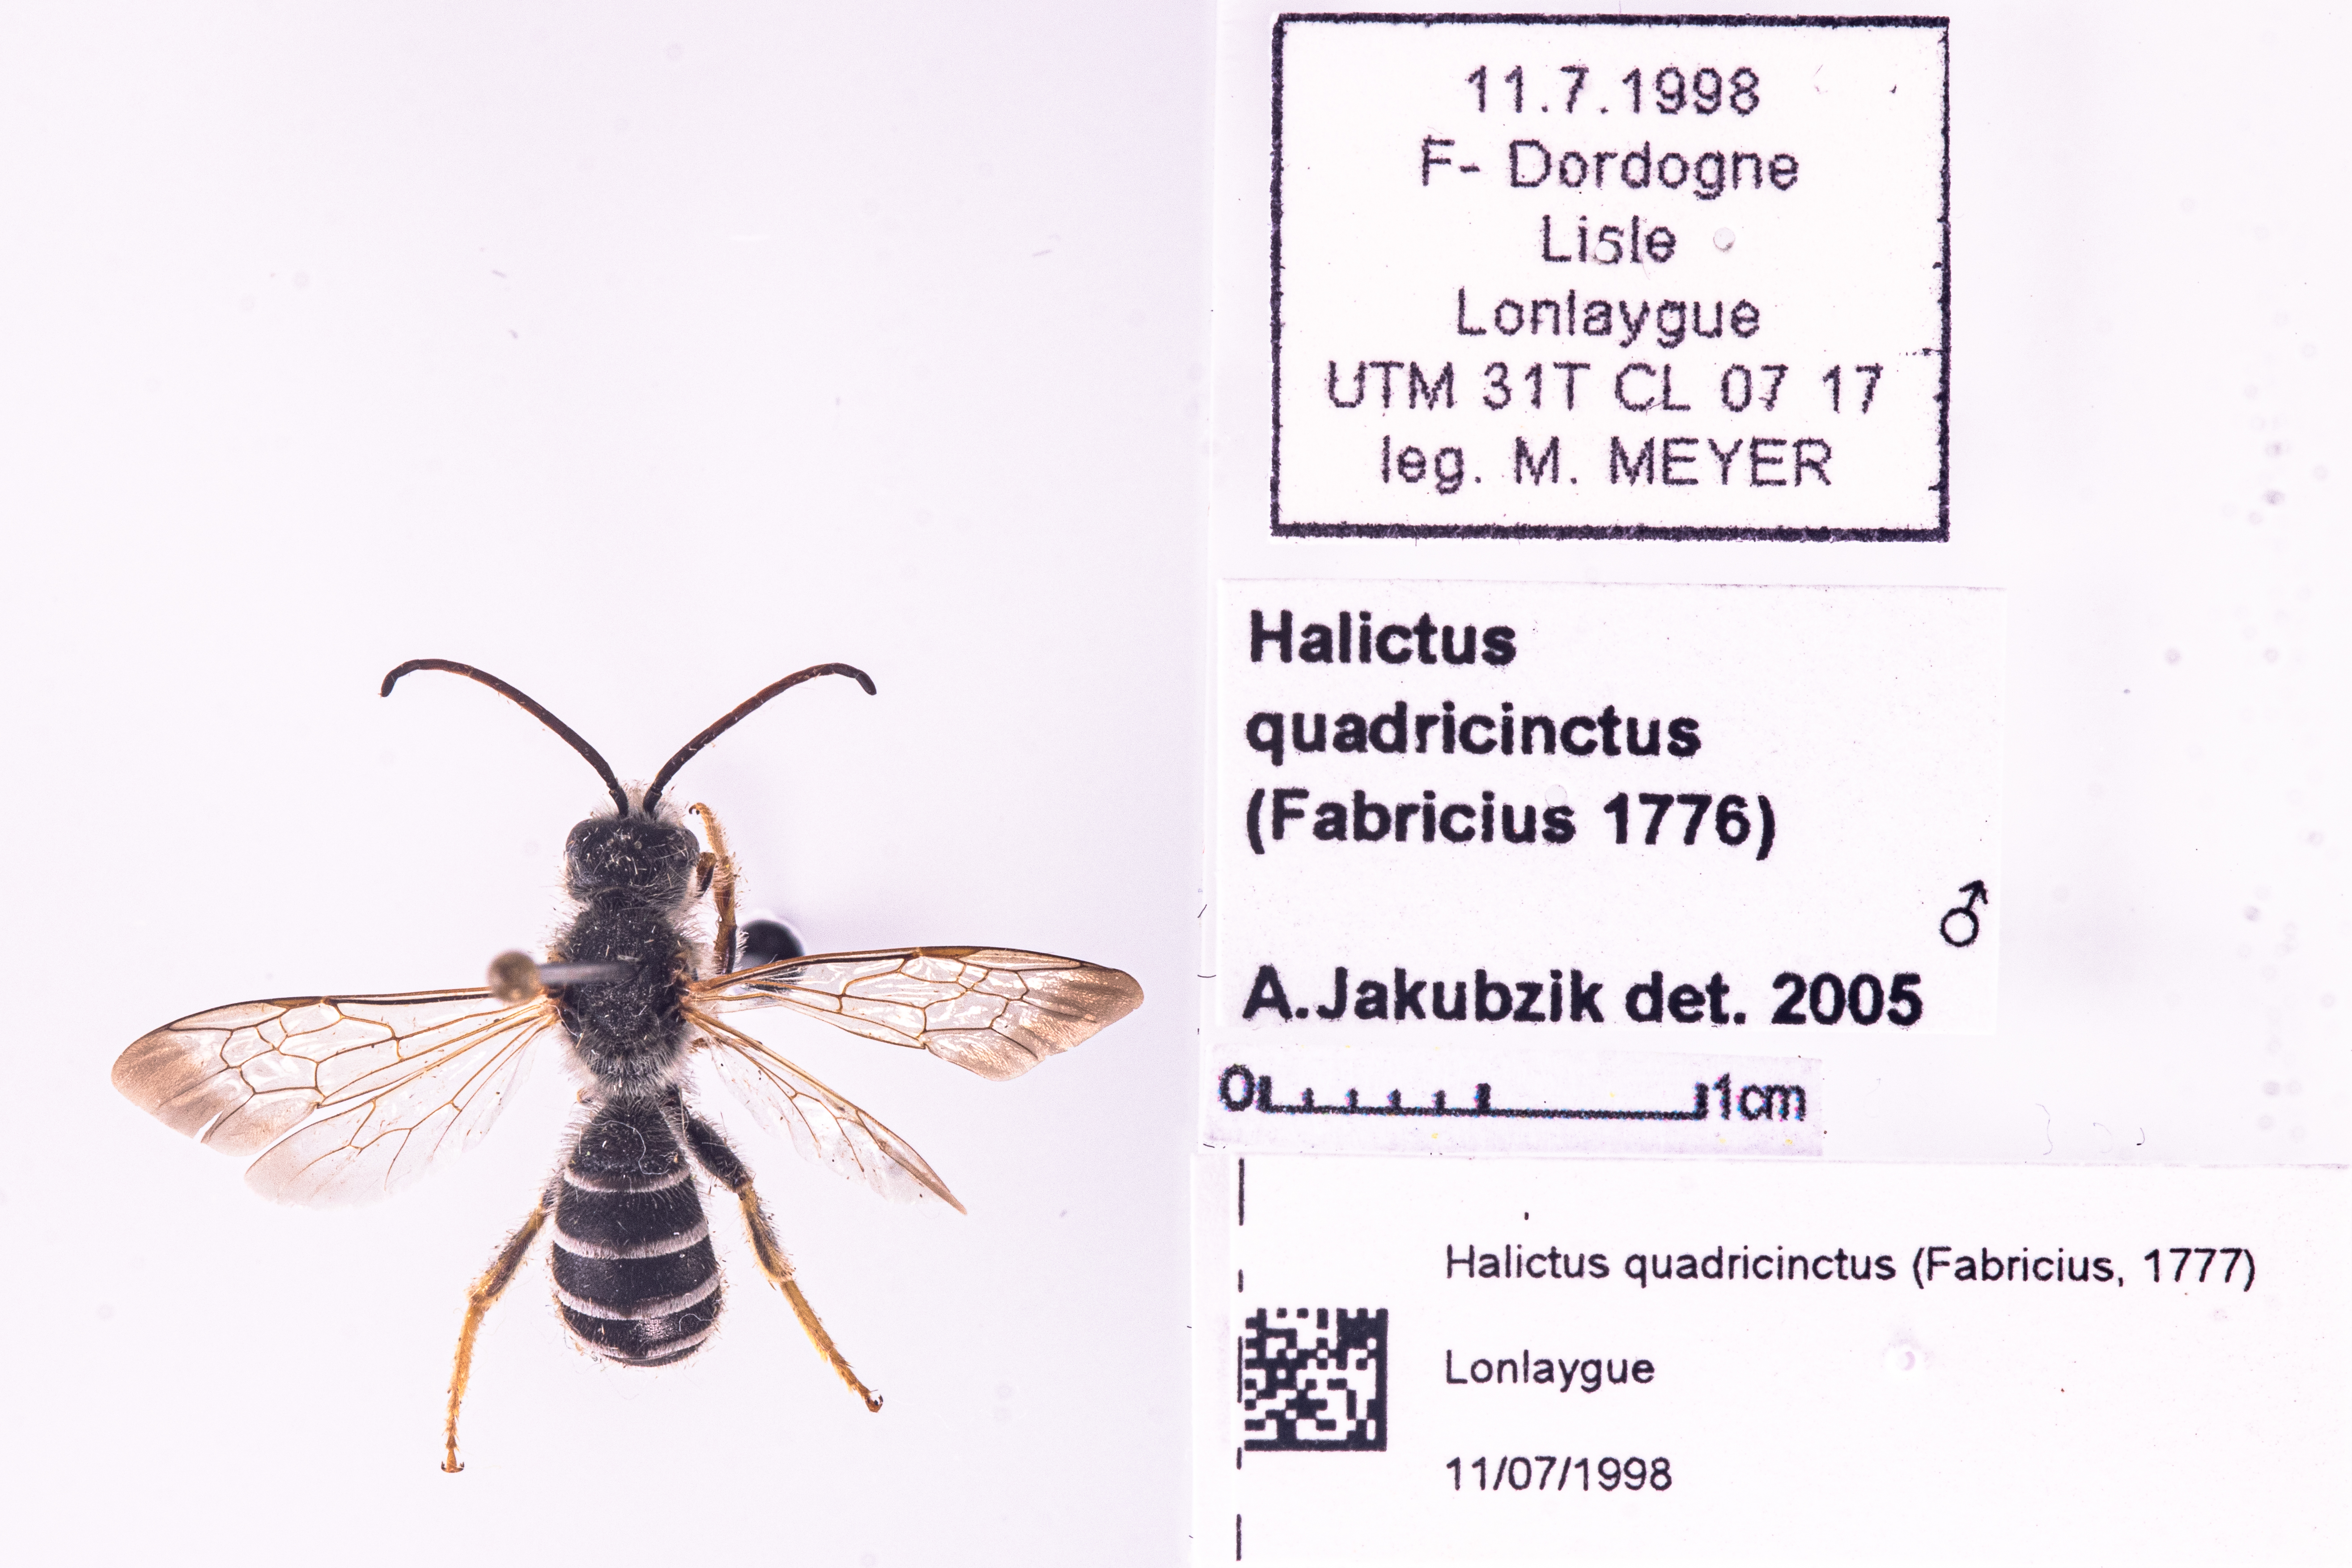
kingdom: Animalia
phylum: Arthropoda
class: Insecta
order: Hymenoptera
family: Halictidae
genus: Halictus
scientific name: Halictus quadricinctus
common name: Giant furrow bee
